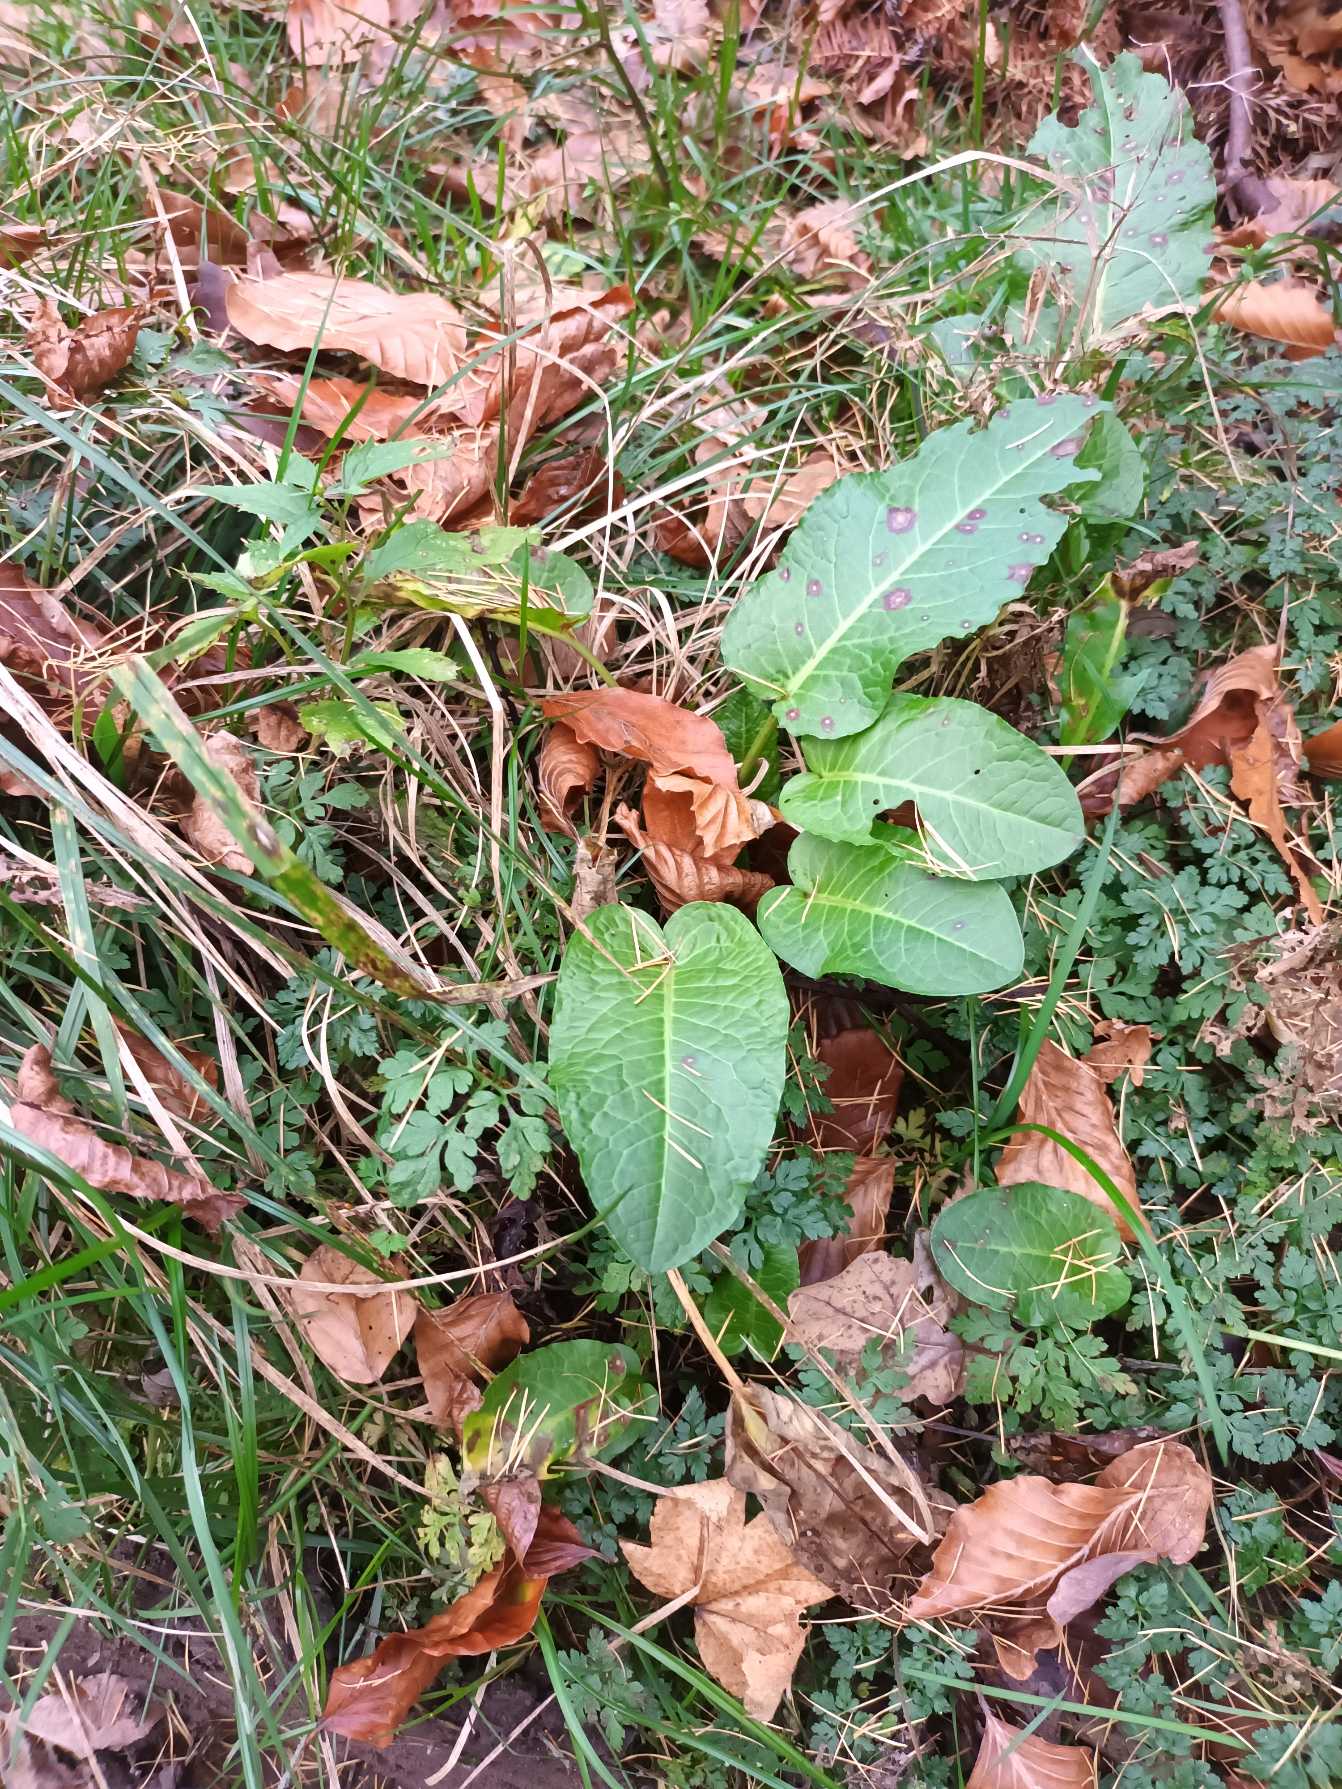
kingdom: Plantae
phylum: Tracheophyta
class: Magnoliopsida
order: Caryophyllales
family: Polygonaceae
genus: Rumex
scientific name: Rumex obtusifolius
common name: Butbladet skræppe
